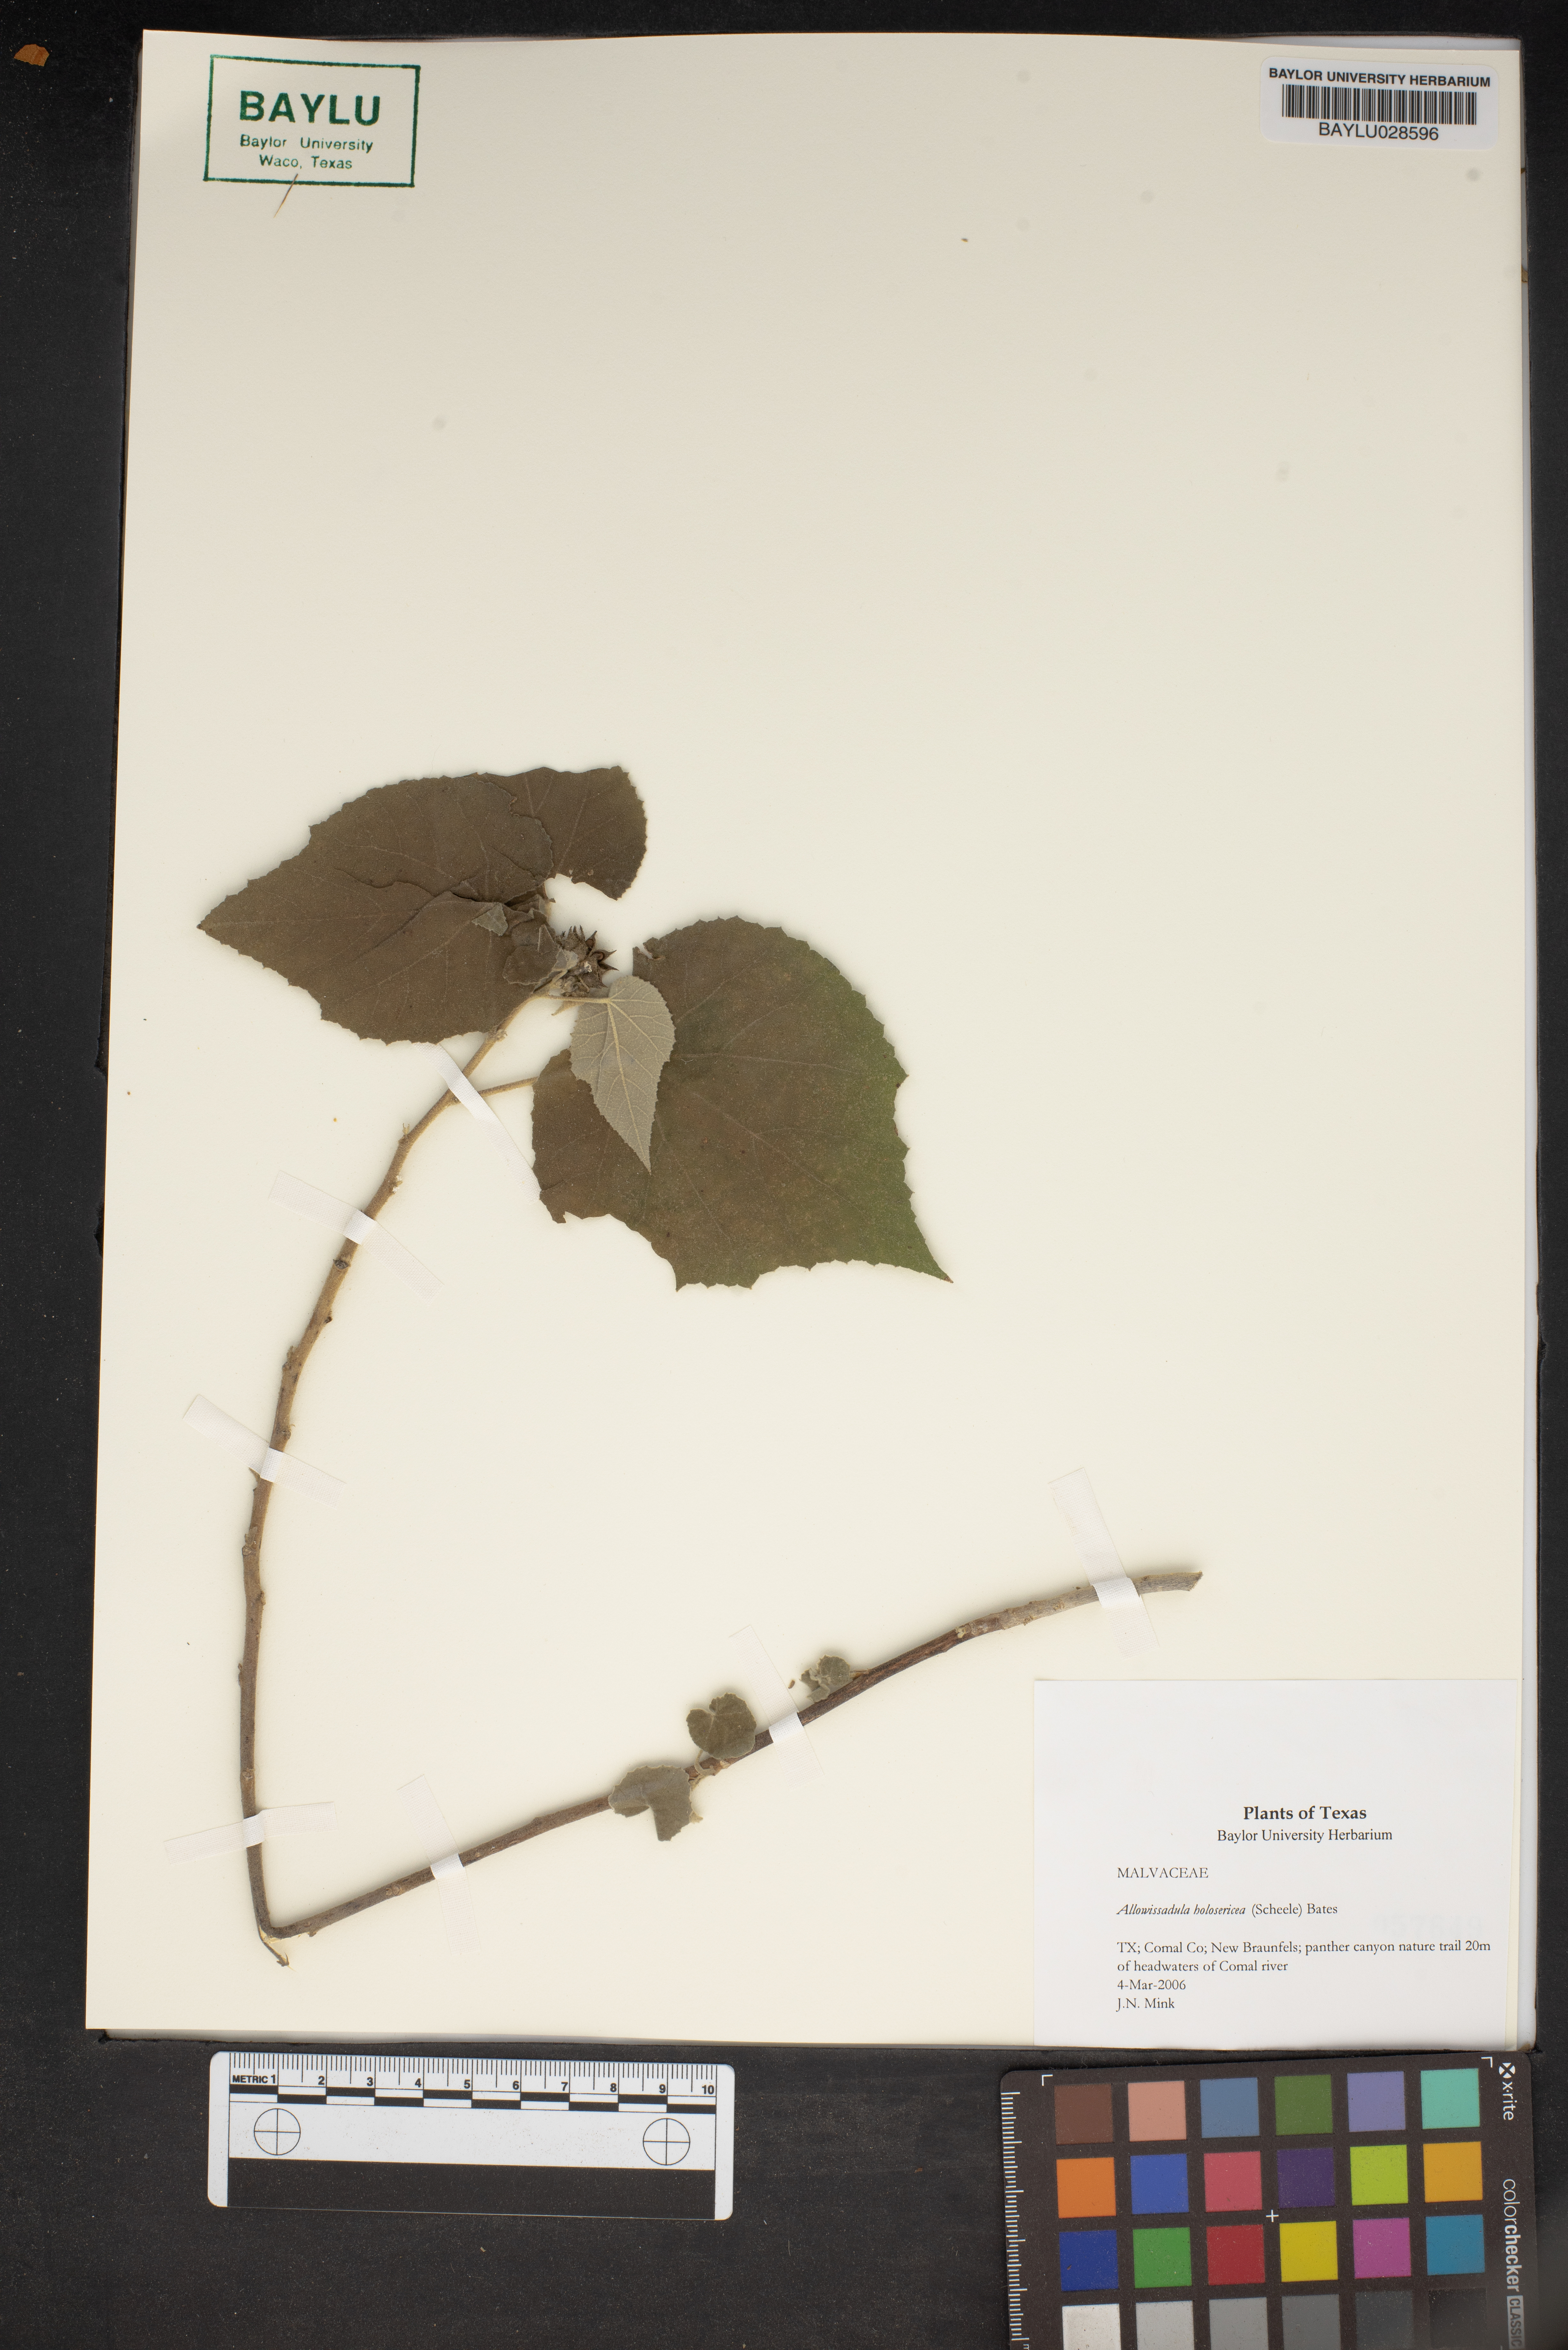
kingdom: Plantae
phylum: Tracheophyta
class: Magnoliopsida
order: Malvales
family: Malvaceae
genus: Allowissadula
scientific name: Allowissadula holosericea
